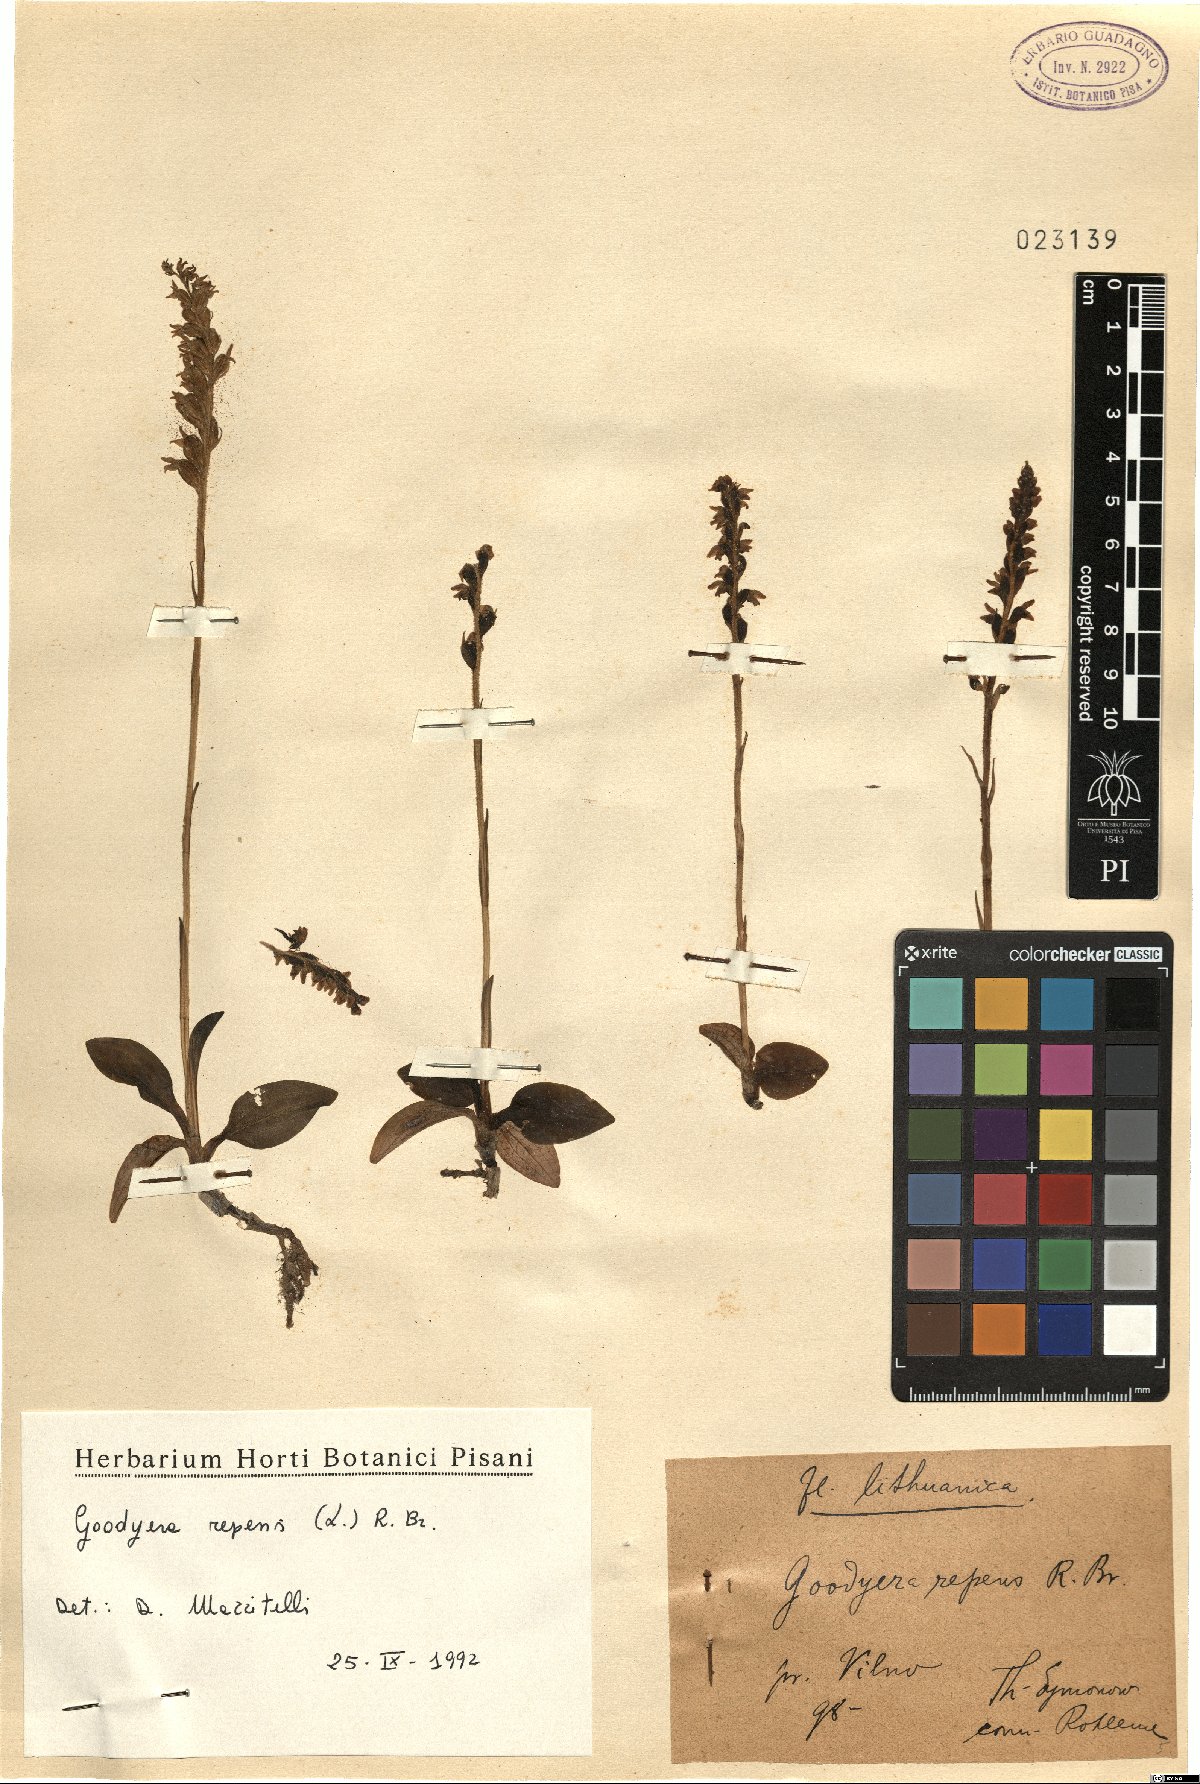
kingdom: Plantae
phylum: Tracheophyta
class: Liliopsida
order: Asparagales
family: Orchidaceae
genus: Goodyera
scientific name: Goodyera repens
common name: Creeping lady's-tresses
